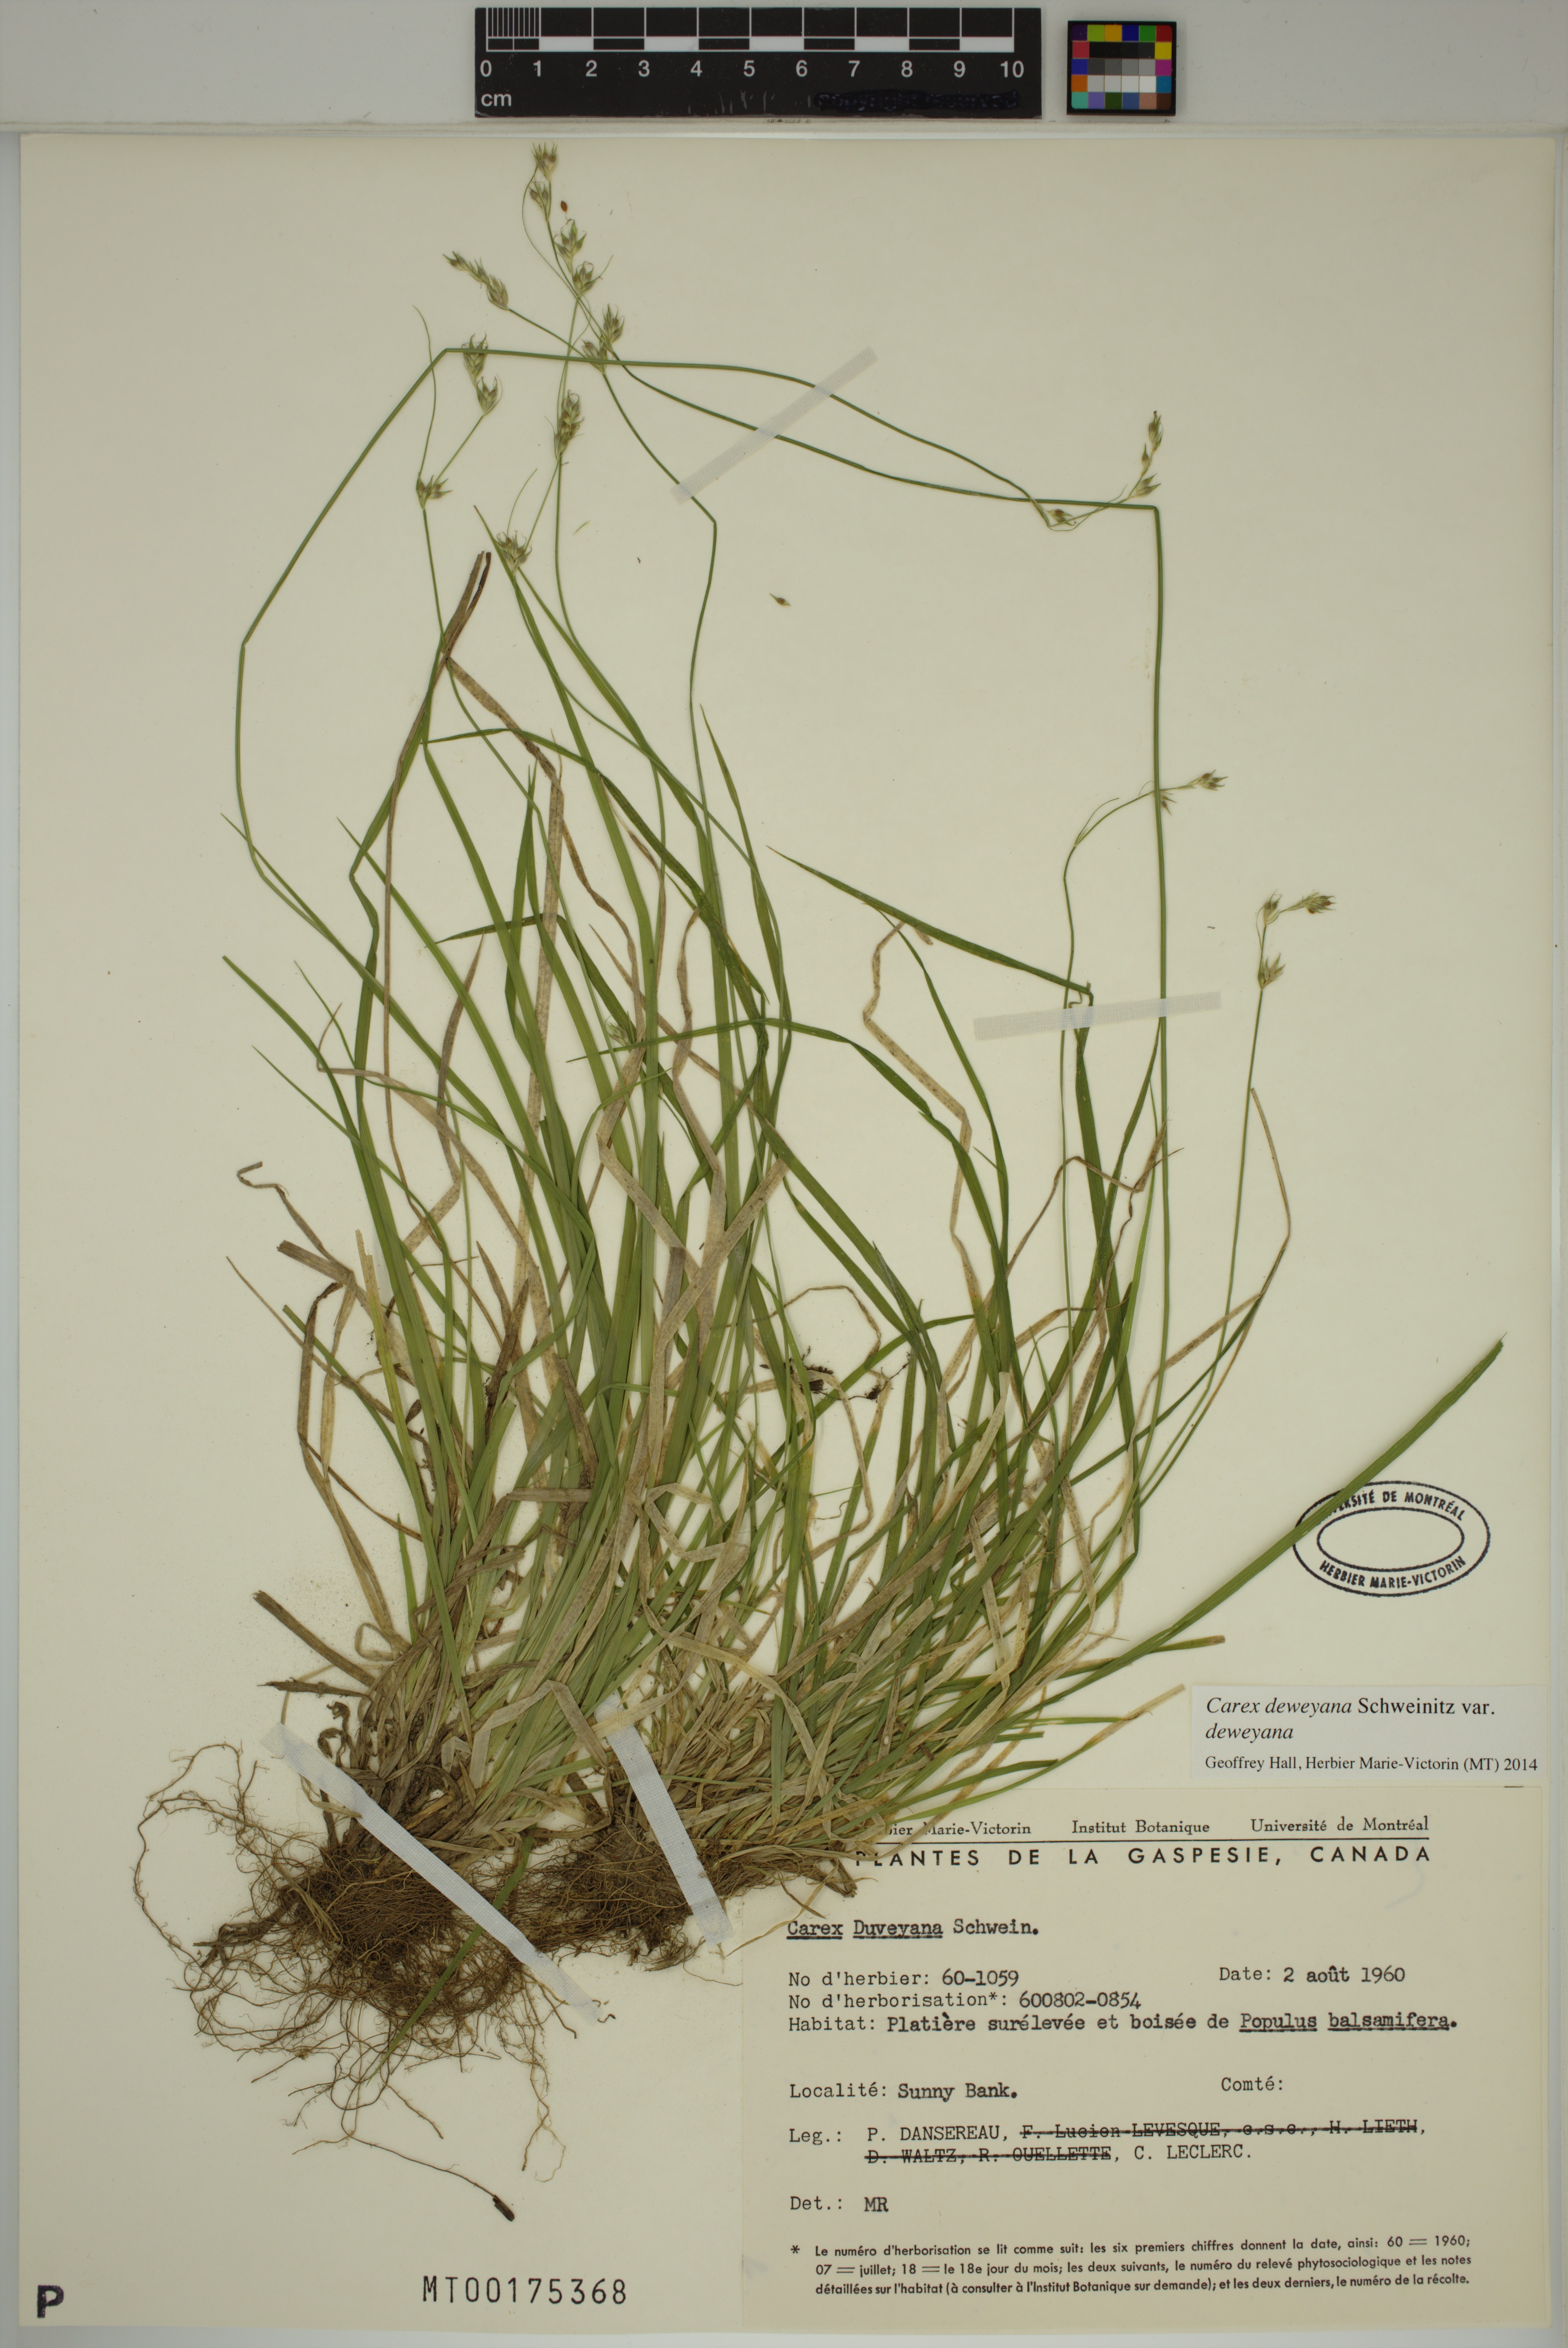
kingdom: Plantae
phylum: Tracheophyta
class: Liliopsida
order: Poales
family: Cyperaceae
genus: Carex
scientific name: Carex deweyana
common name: Dewey's sedge
